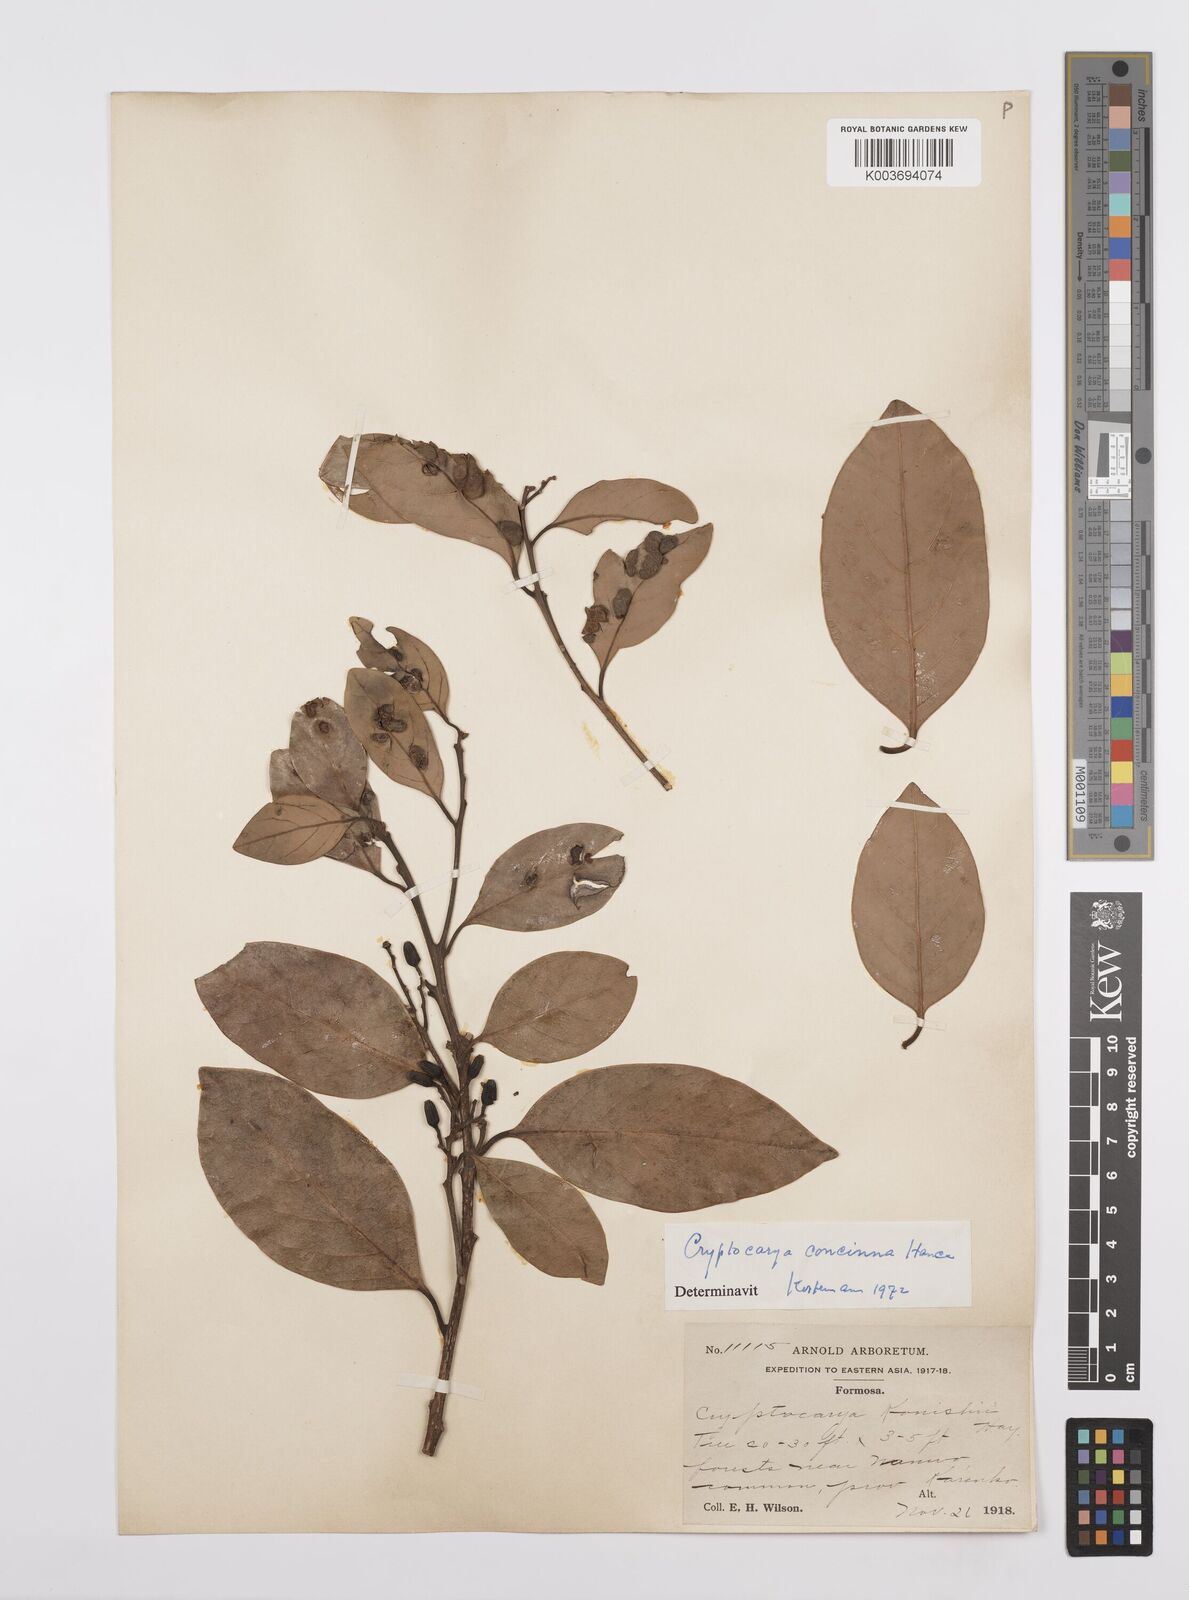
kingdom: Plantae
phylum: Tracheophyta
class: Magnoliopsida
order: Laurales
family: Lauraceae
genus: Cryptocarya
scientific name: Cryptocarya concinna
